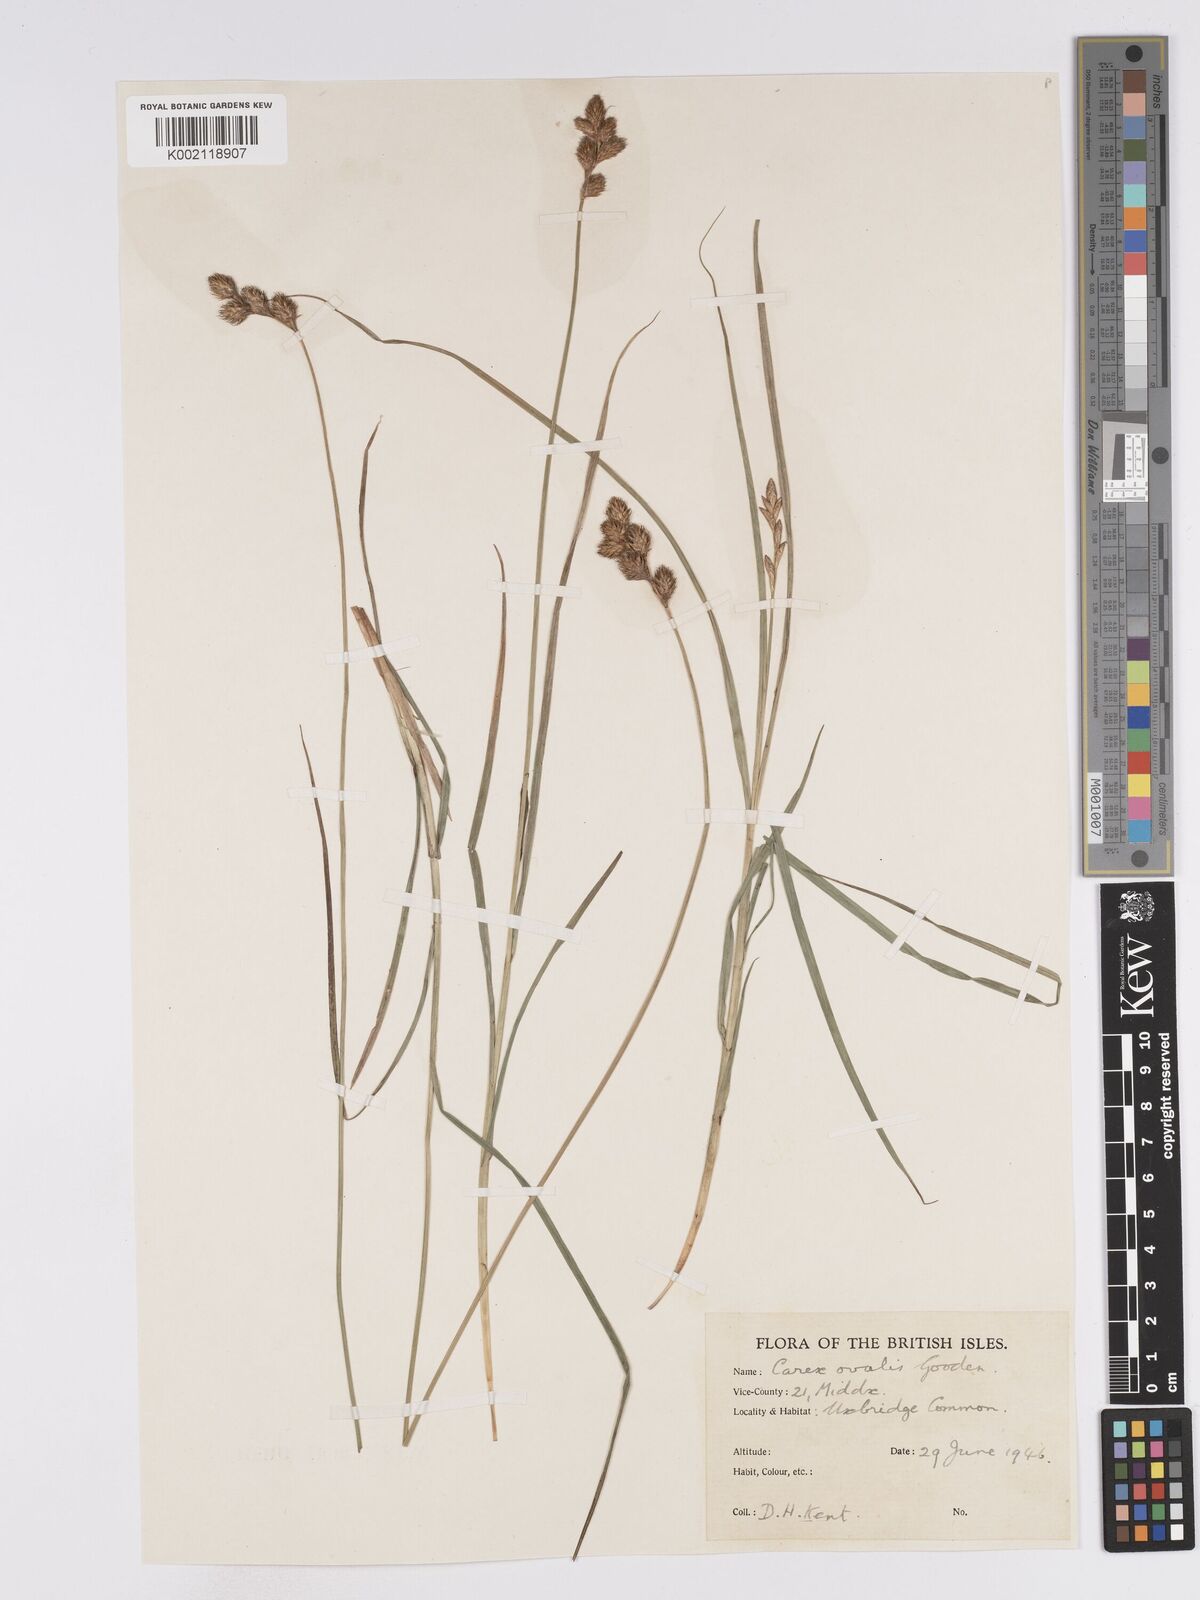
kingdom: Plantae
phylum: Tracheophyta
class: Liliopsida
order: Poales
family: Cyperaceae
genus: Carex
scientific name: Carex leporina
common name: Oval sedge
